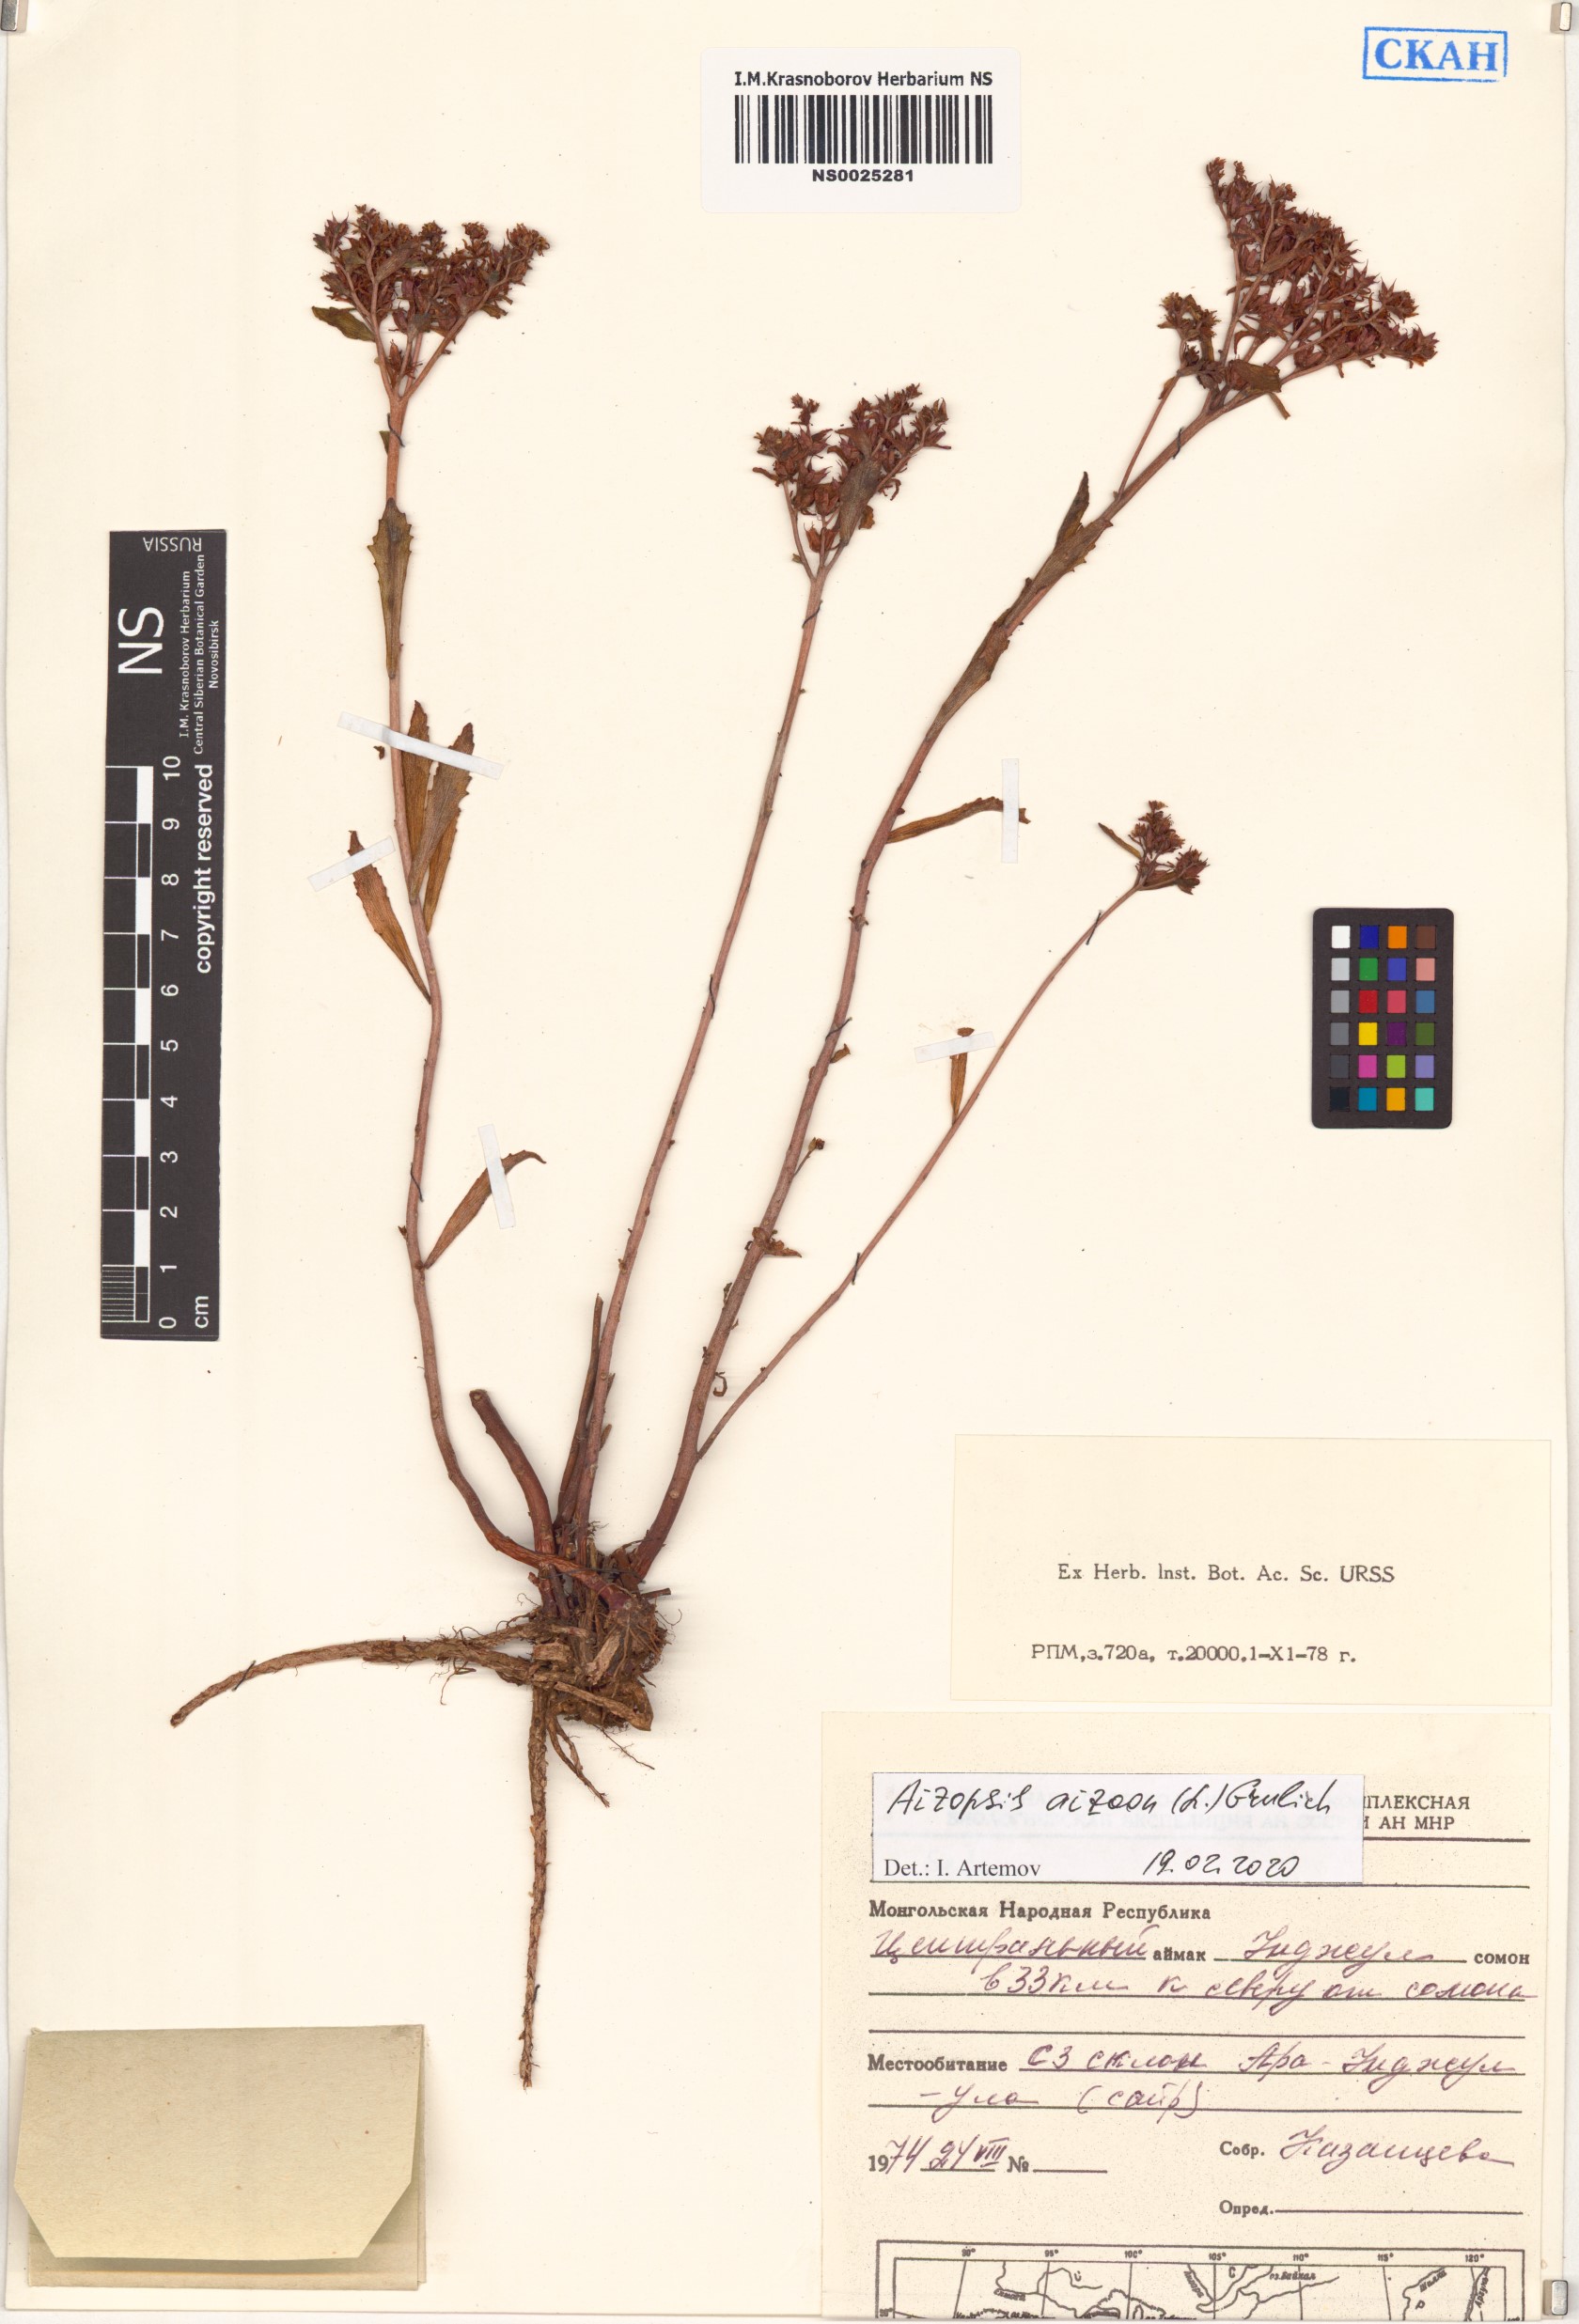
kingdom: Plantae
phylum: Tracheophyta
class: Magnoliopsida
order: Saxifragales
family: Crassulaceae
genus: Phedimus
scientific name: Phedimus aizoon
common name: Orpin aizoon
